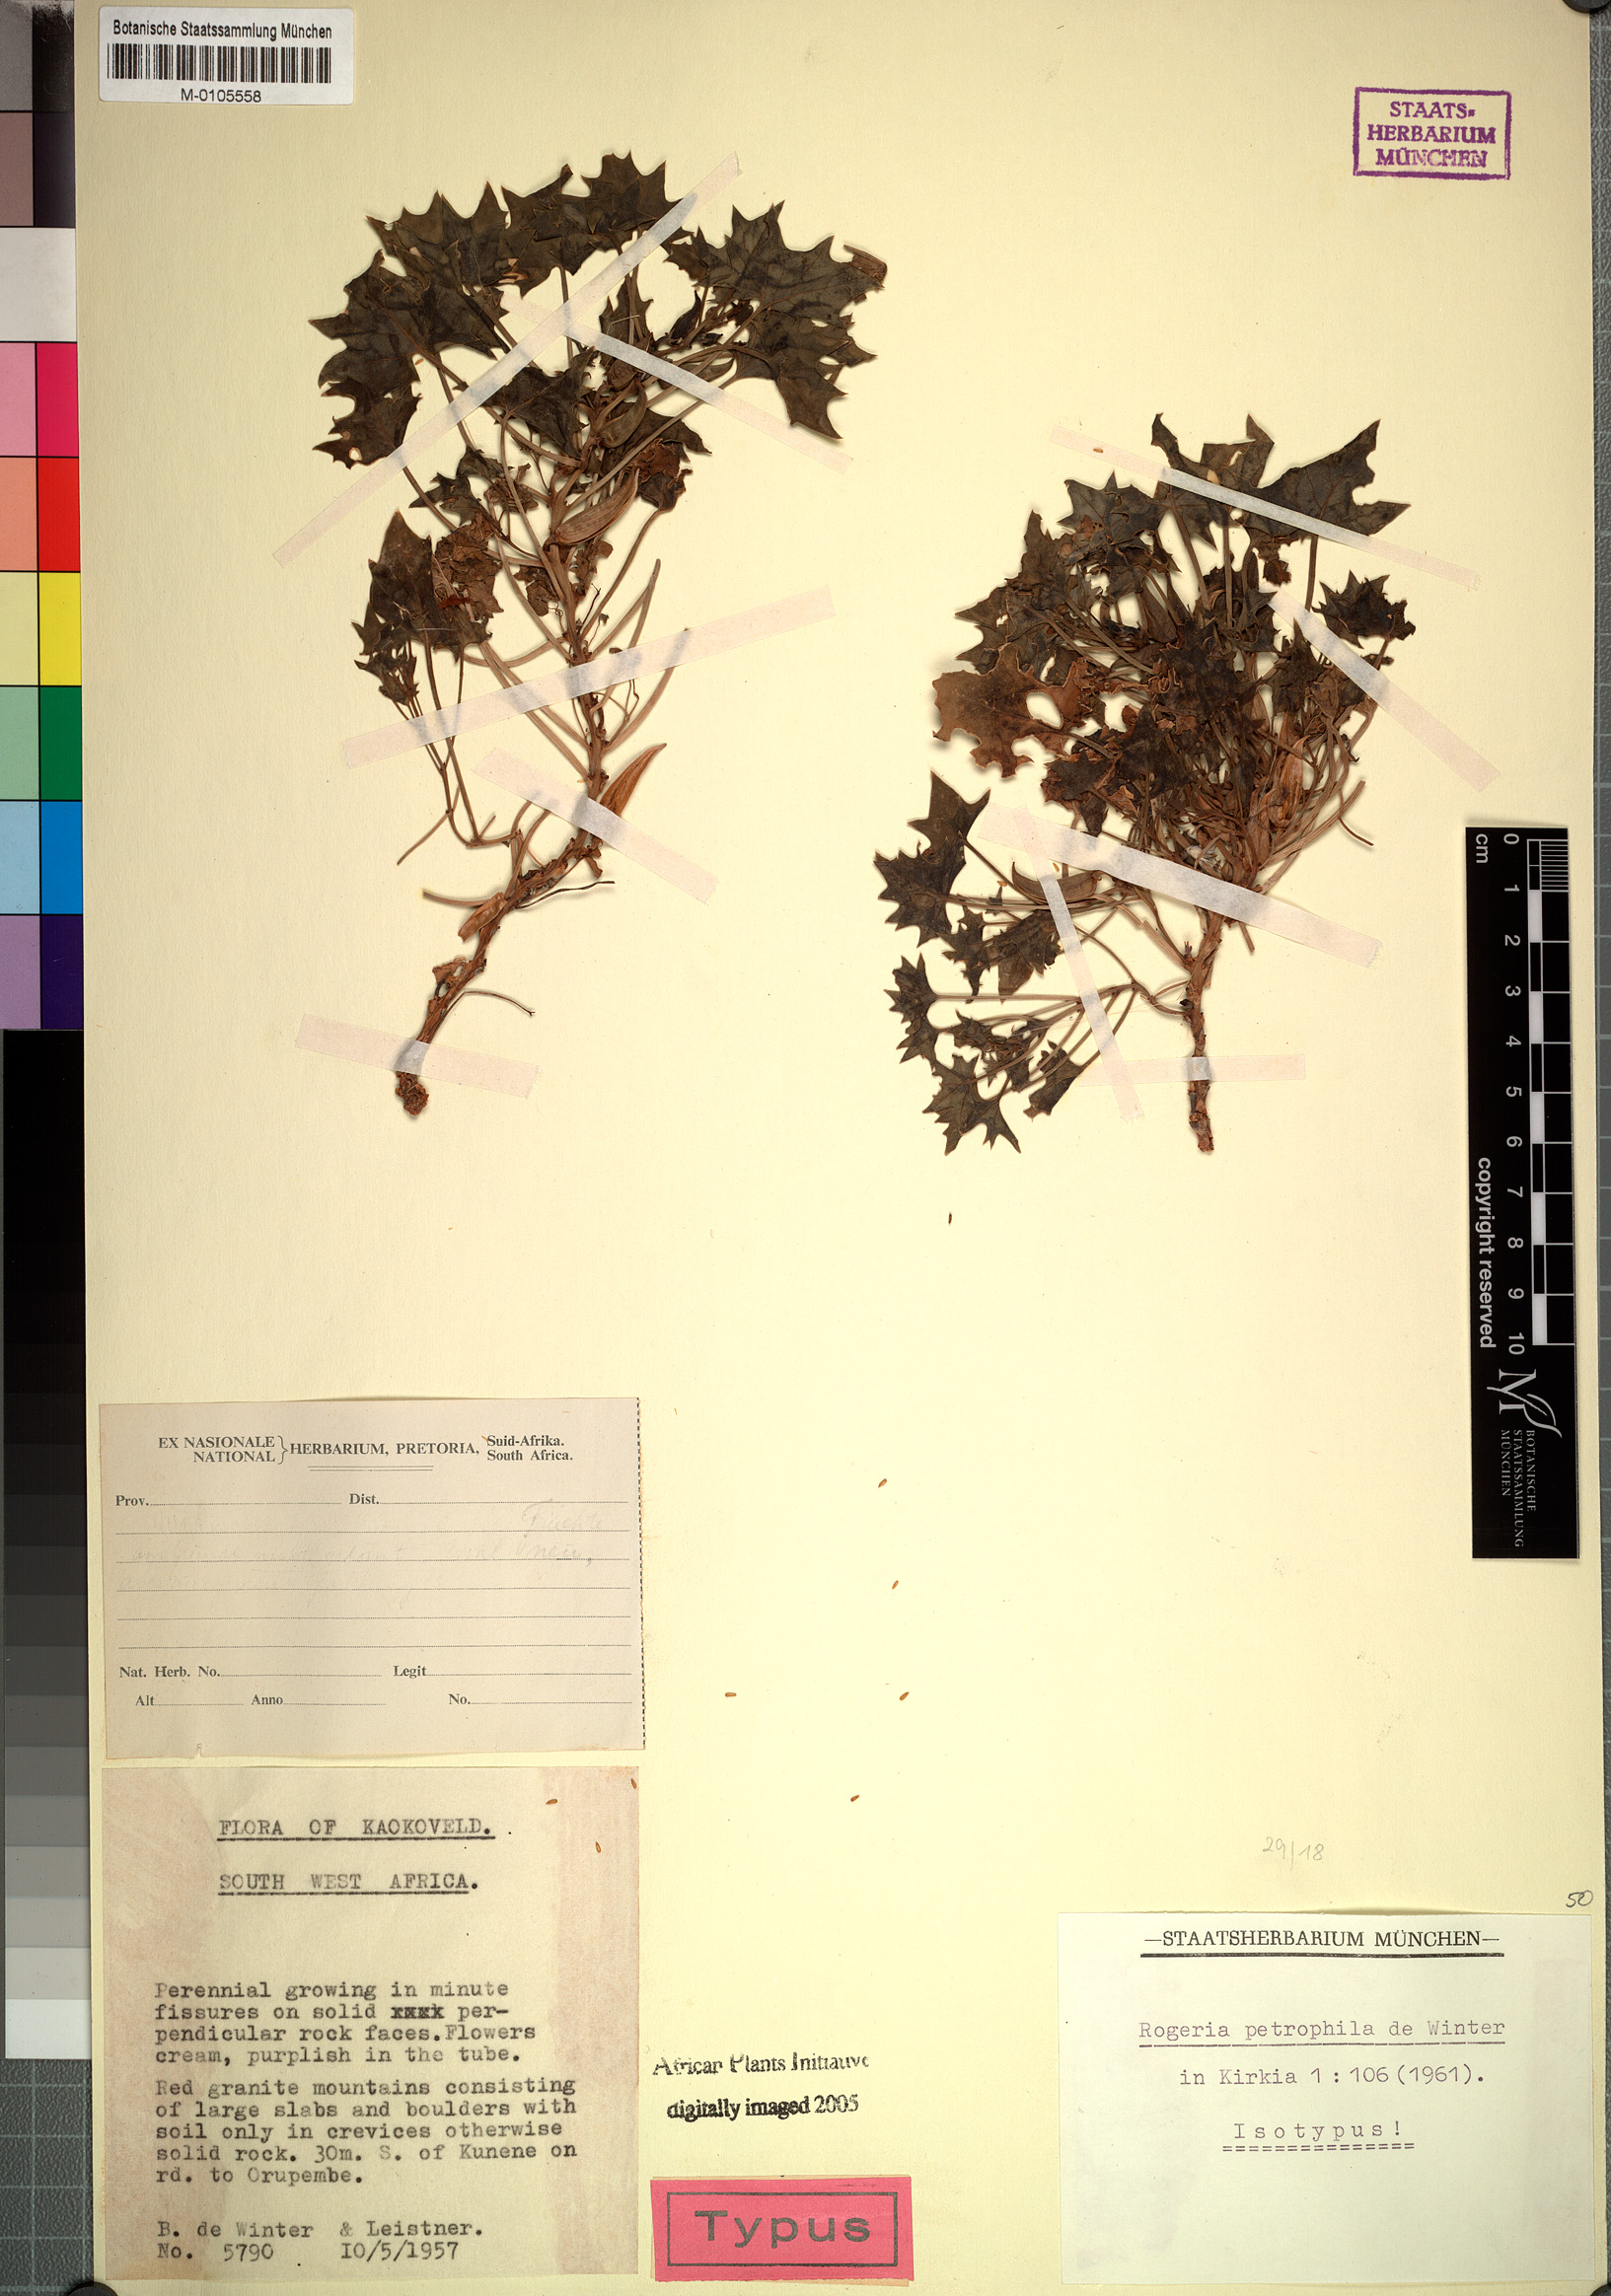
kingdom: Plantae
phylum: Tracheophyta
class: Magnoliopsida
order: Lamiales
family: Pedaliaceae
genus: Dewinteria
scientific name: Dewinteria petrophila
